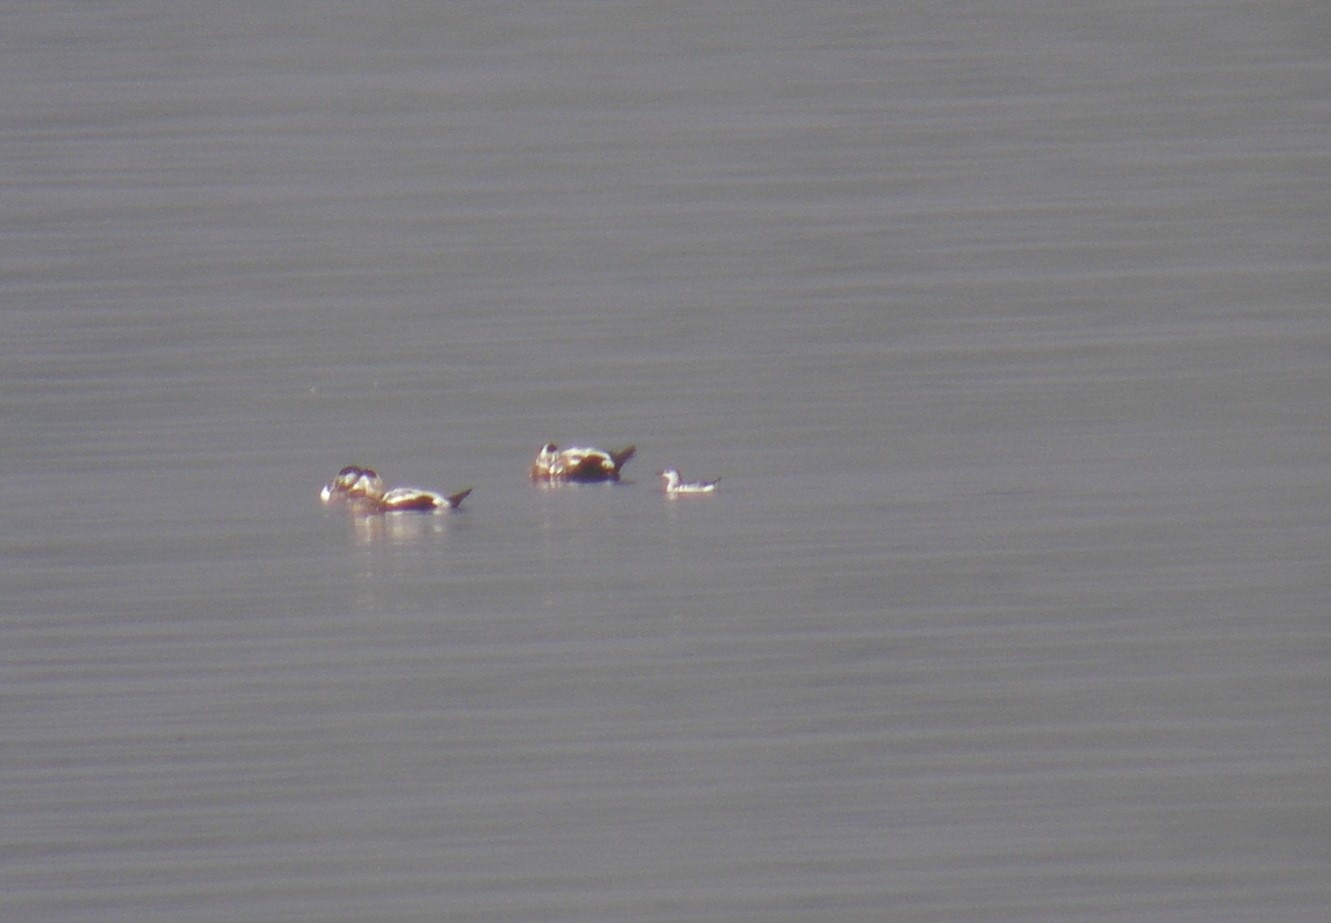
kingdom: Animalia
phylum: Chordata
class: Aves
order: Charadriiformes
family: Alcidae
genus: Cepphus
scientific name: Cepphus grylle
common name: Tejst
